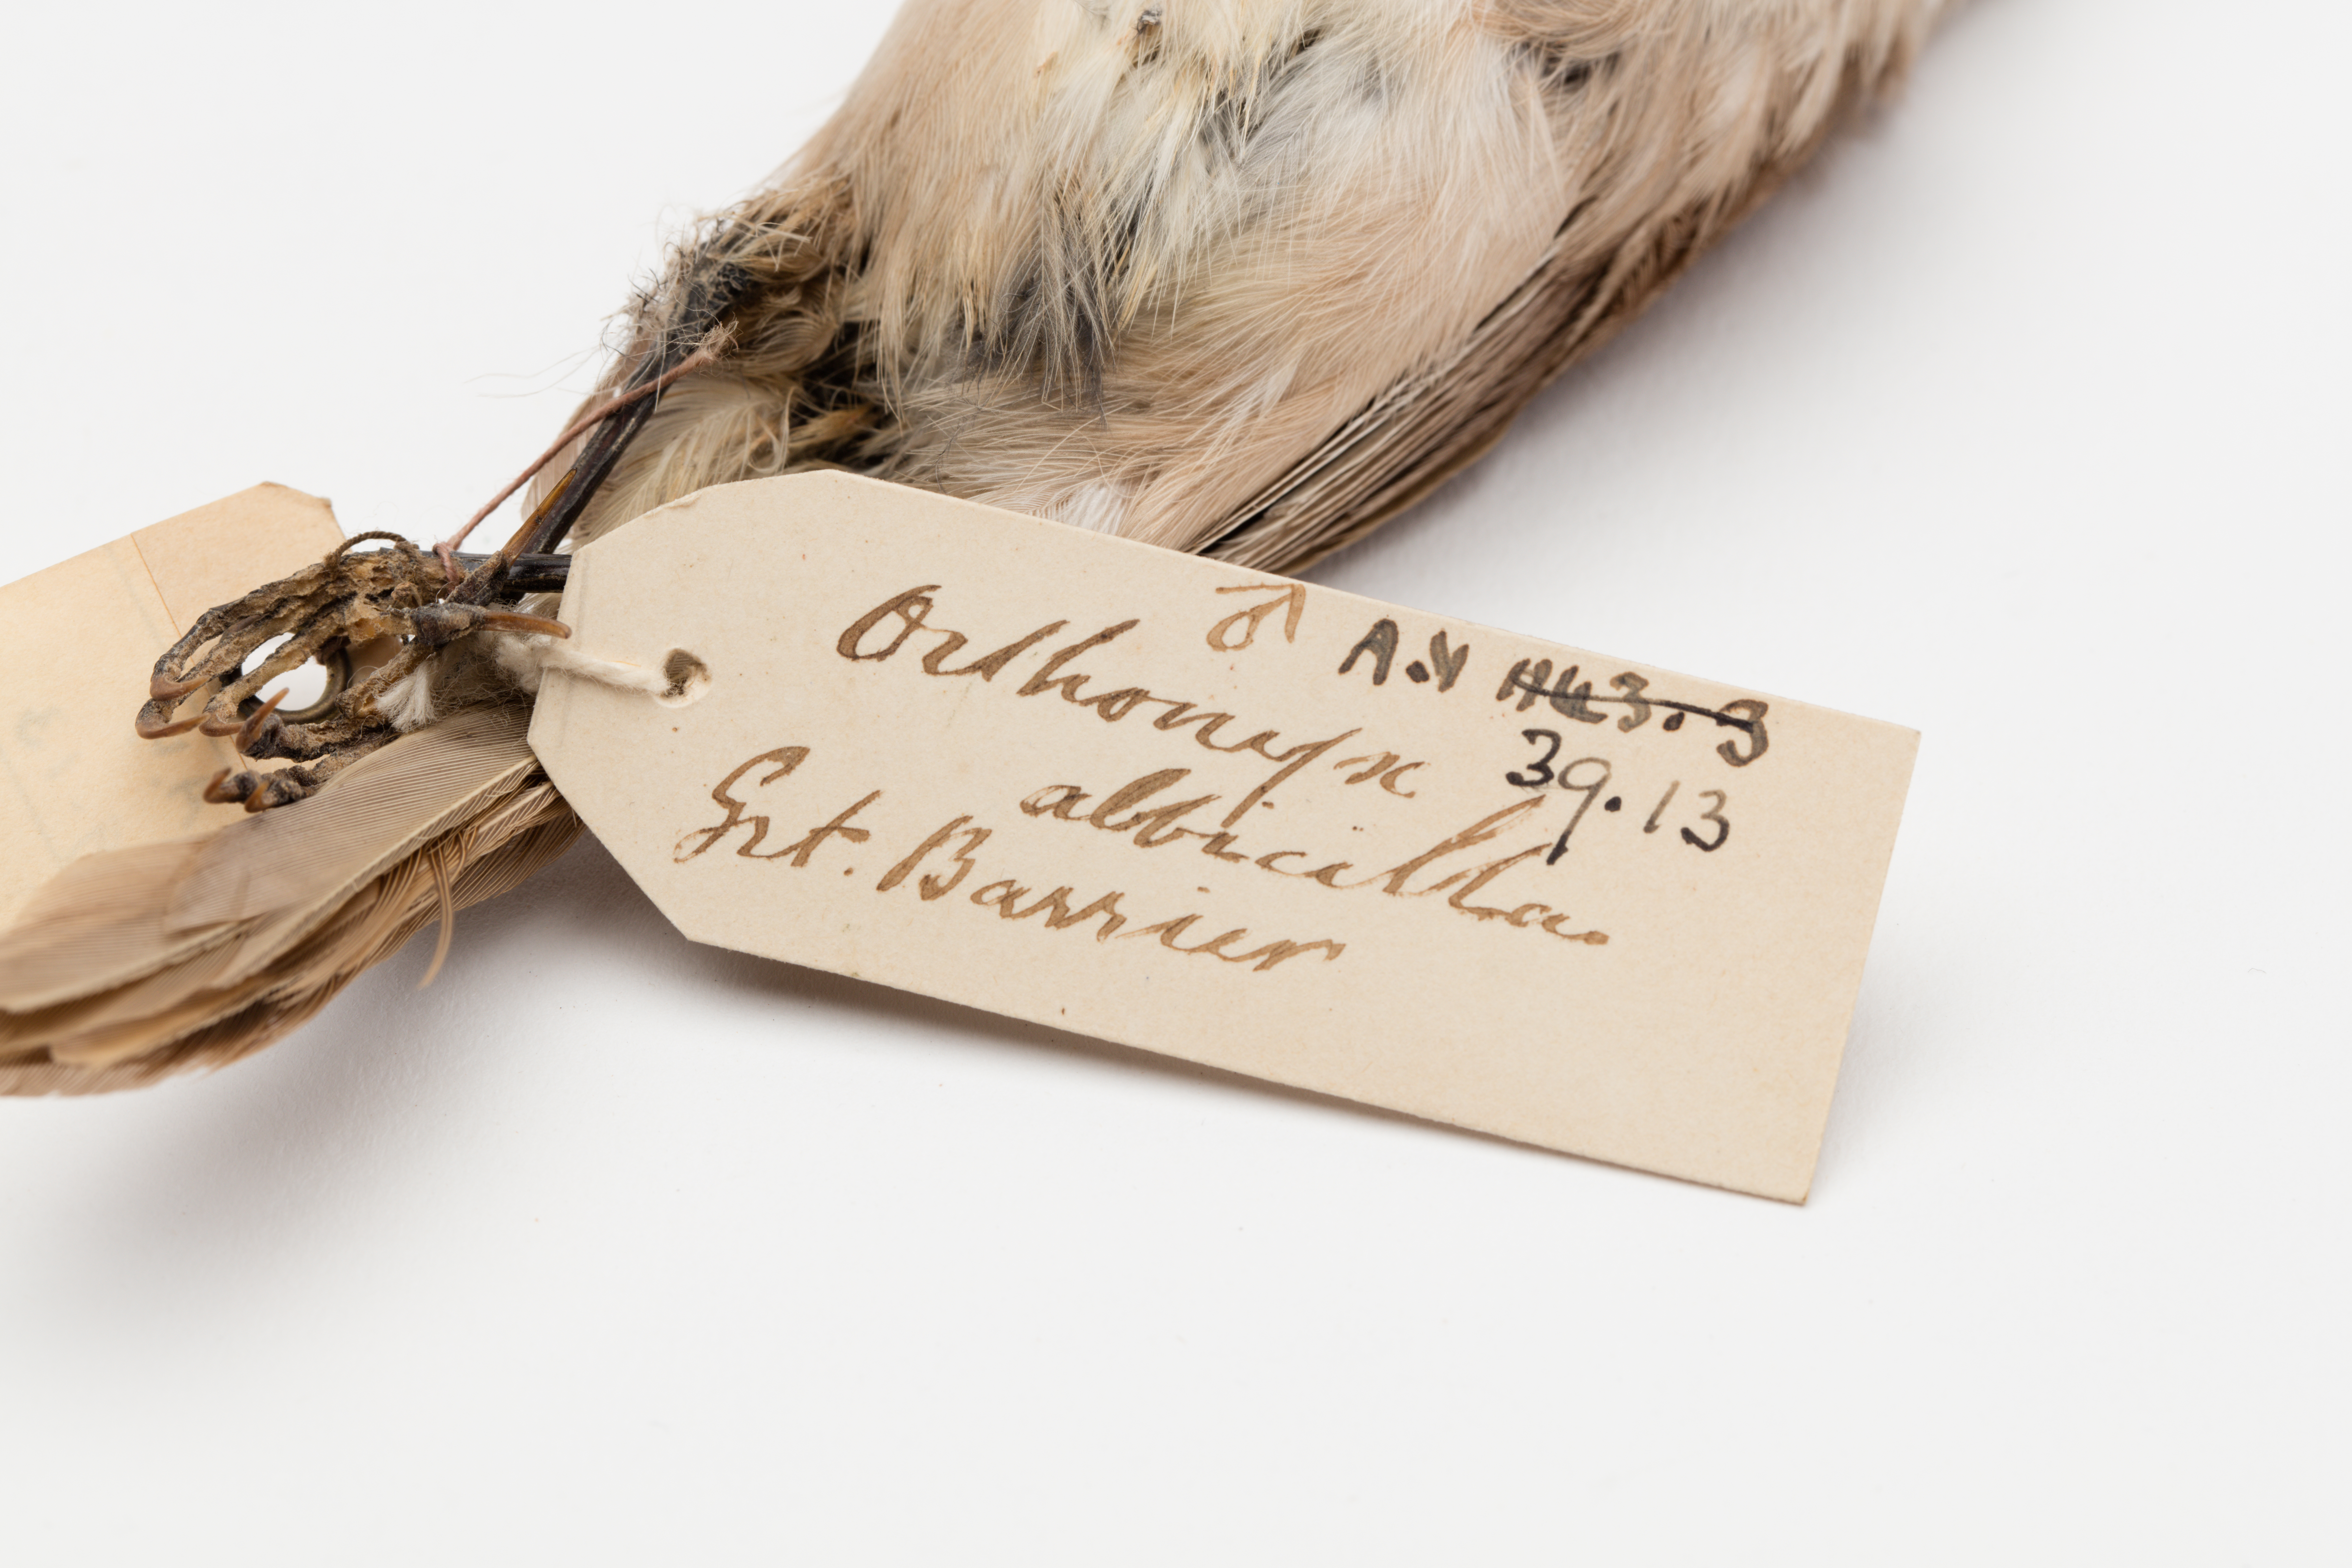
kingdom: Animalia
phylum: Chordata
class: Aves
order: Passeriformes
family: Acanthizidae
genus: Mohoua
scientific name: Mohoua albicilla
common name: Whitehead
